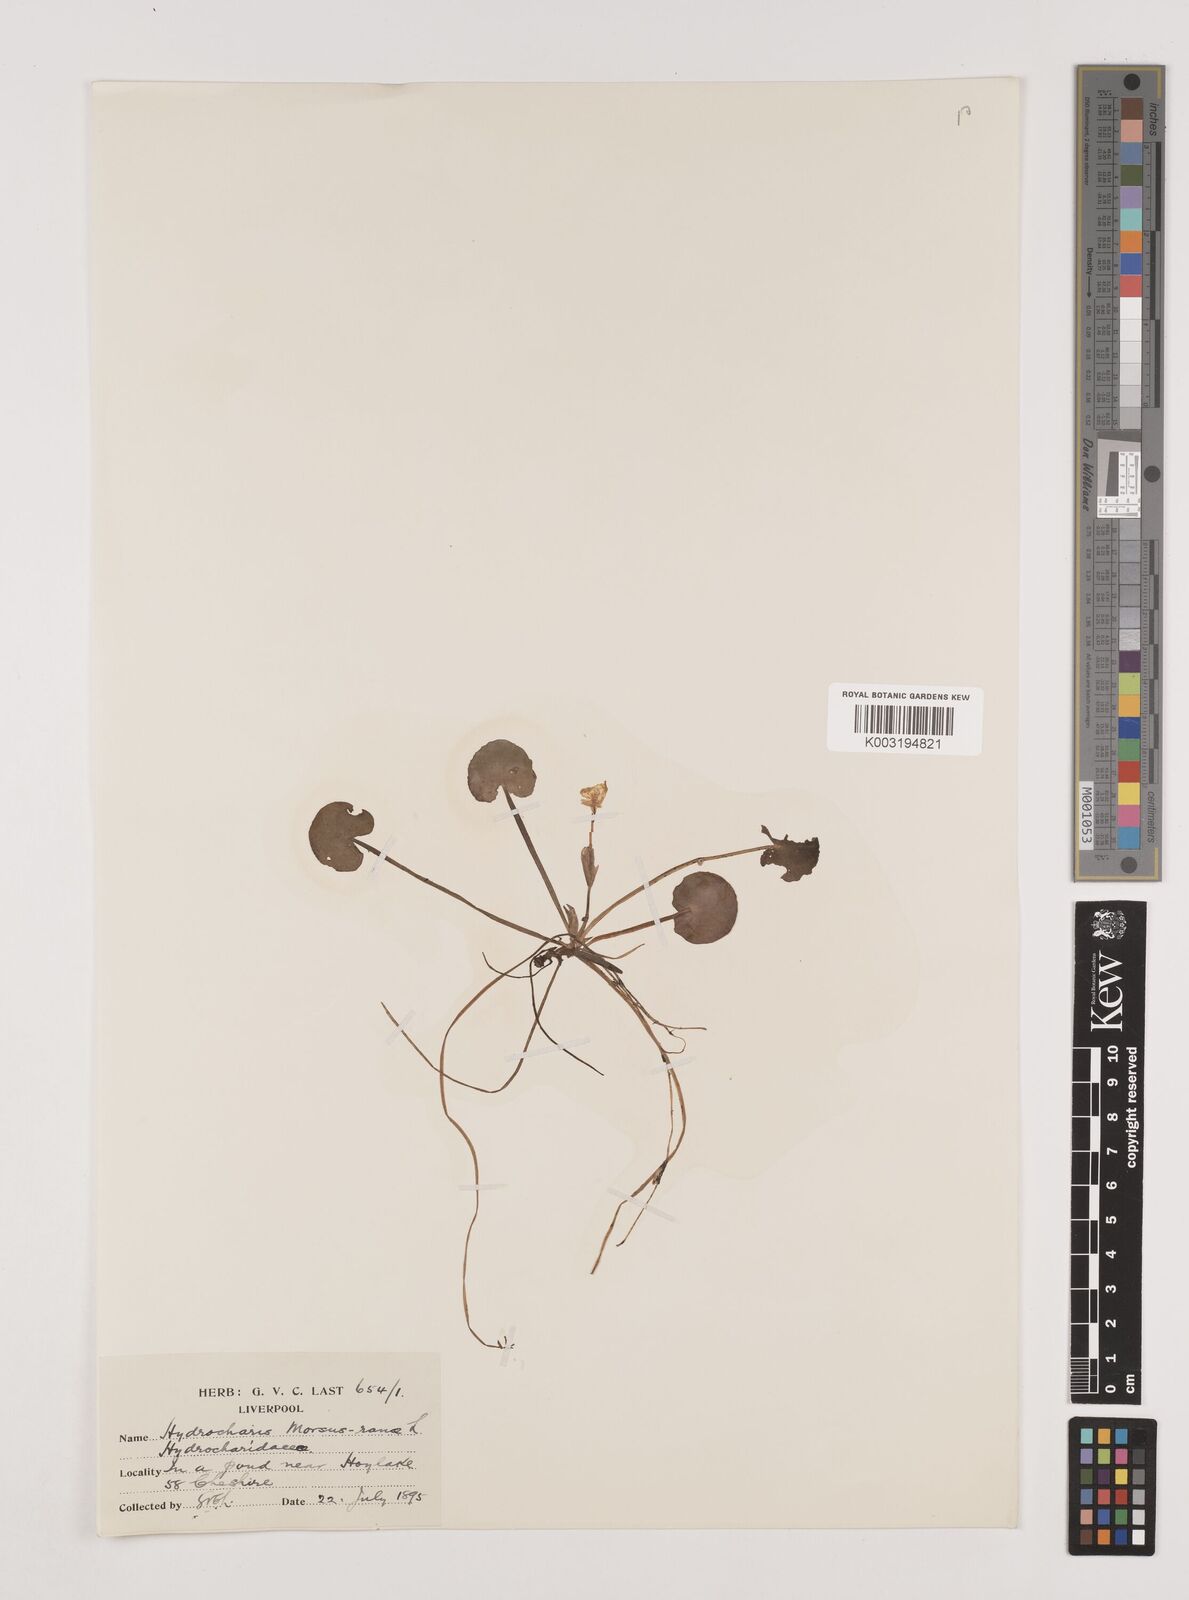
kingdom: Plantae
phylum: Tracheophyta
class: Liliopsida
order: Alismatales
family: Hydrocharitaceae
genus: Hydrocharis
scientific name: Hydrocharis morsus-ranae
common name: Frogbit
